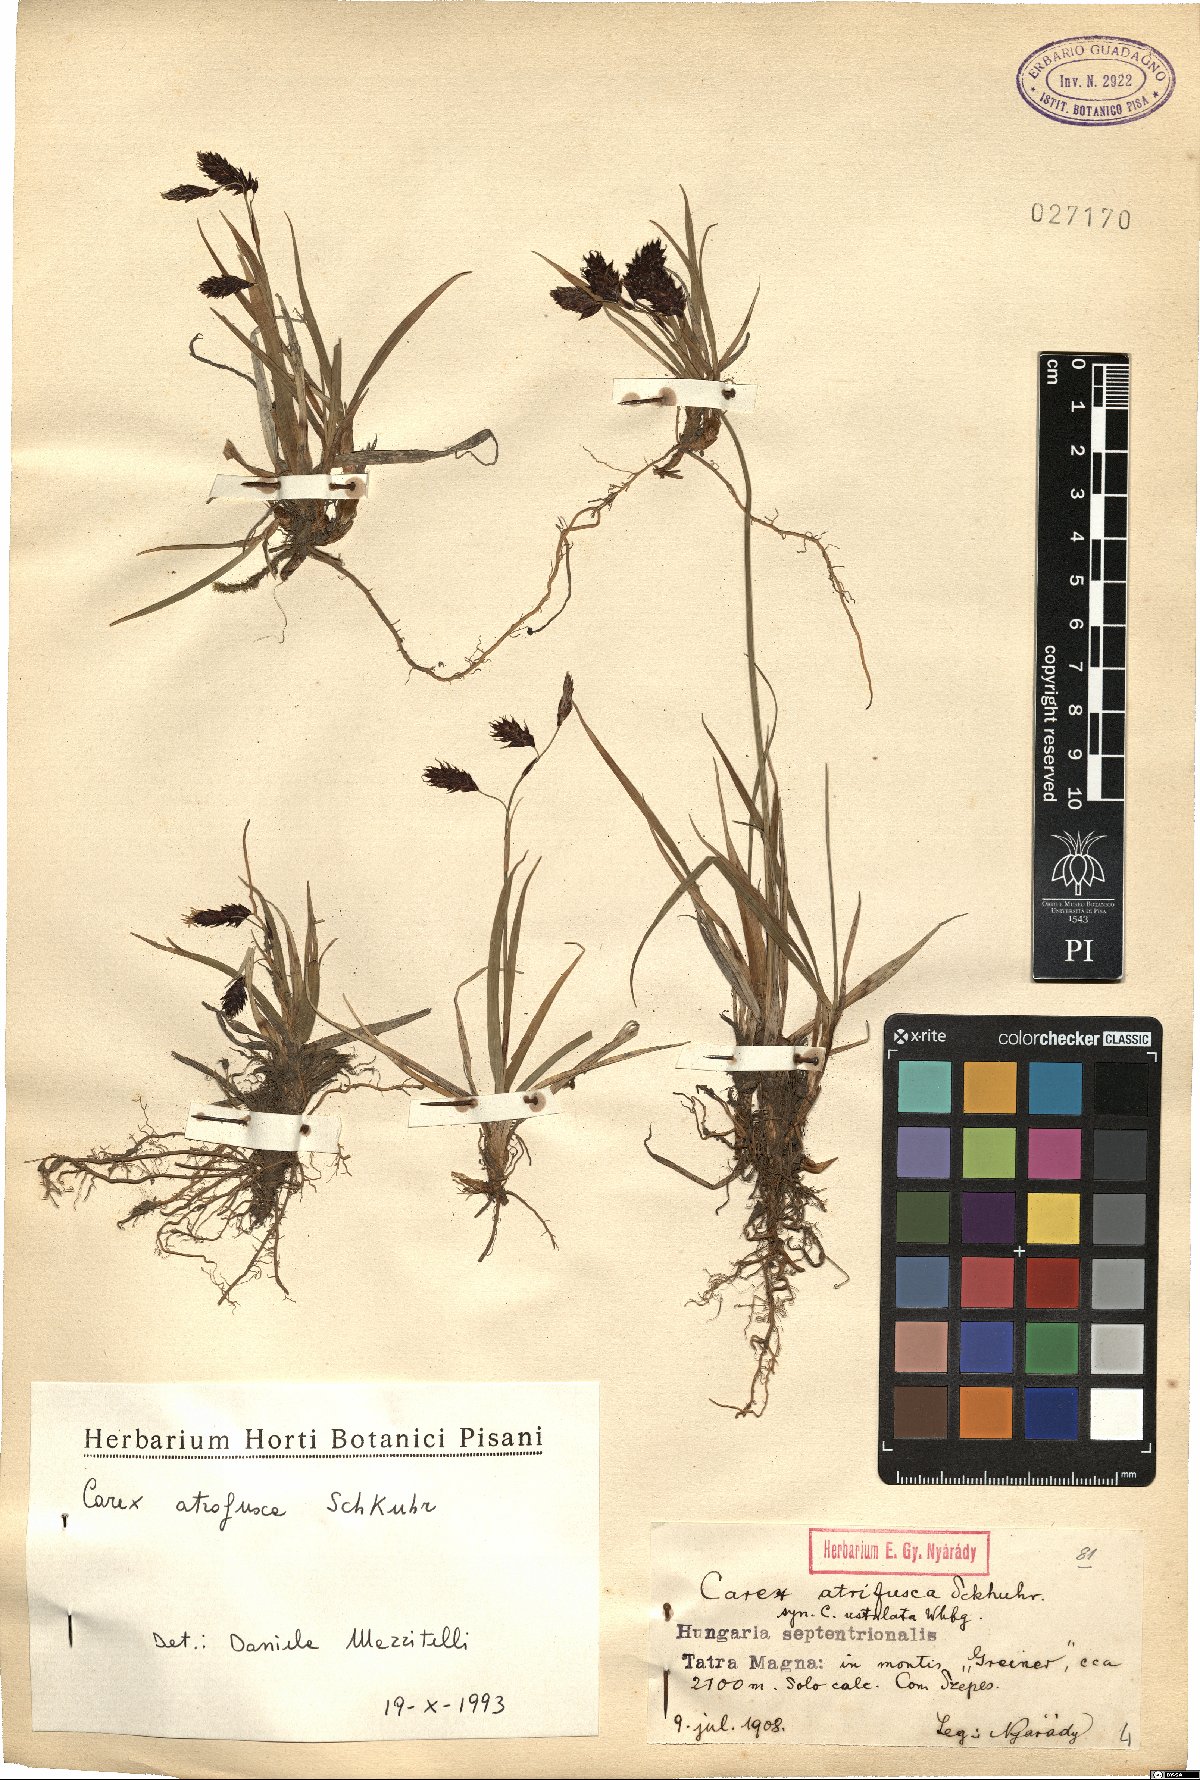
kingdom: Plantae
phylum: Tracheophyta
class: Liliopsida
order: Poales
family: Cyperaceae
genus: Carex
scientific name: Carex atrofusca
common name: Scorched alpine-sedge
